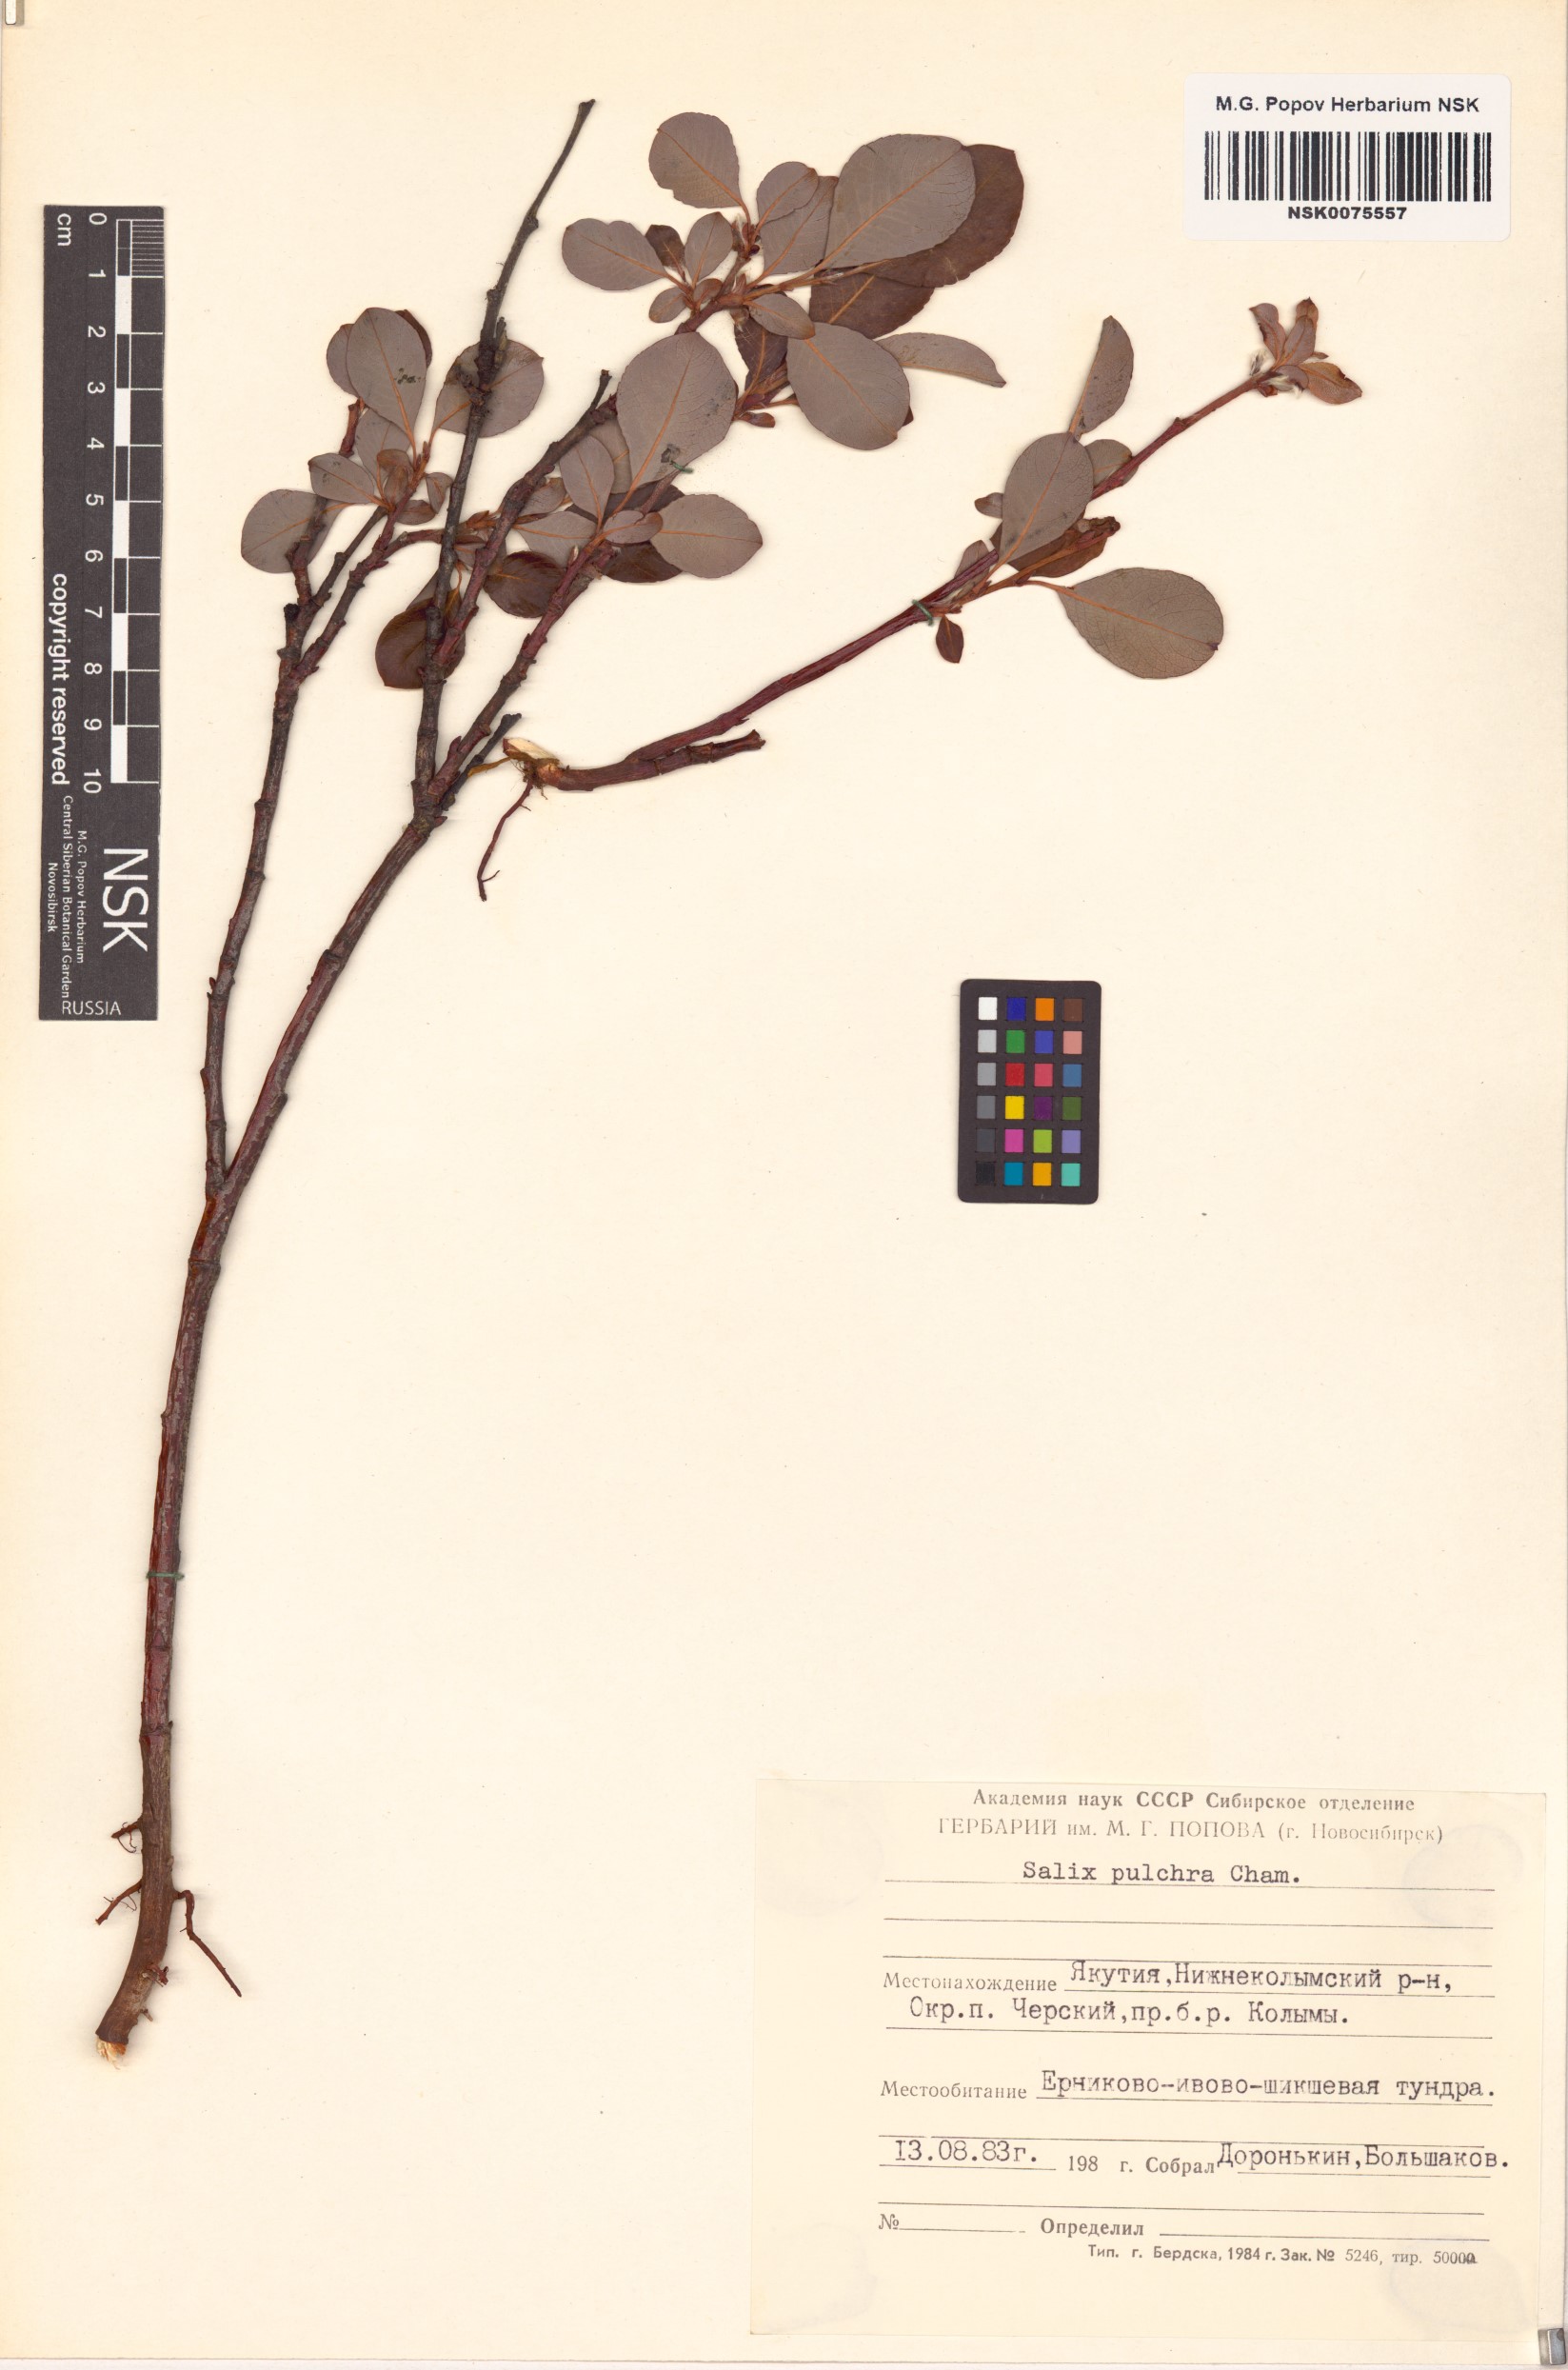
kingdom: Plantae
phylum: Tracheophyta
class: Magnoliopsida
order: Malpighiales
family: Salicaceae
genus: Salix
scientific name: Salix pulchra
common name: Diamond-leaved willow
